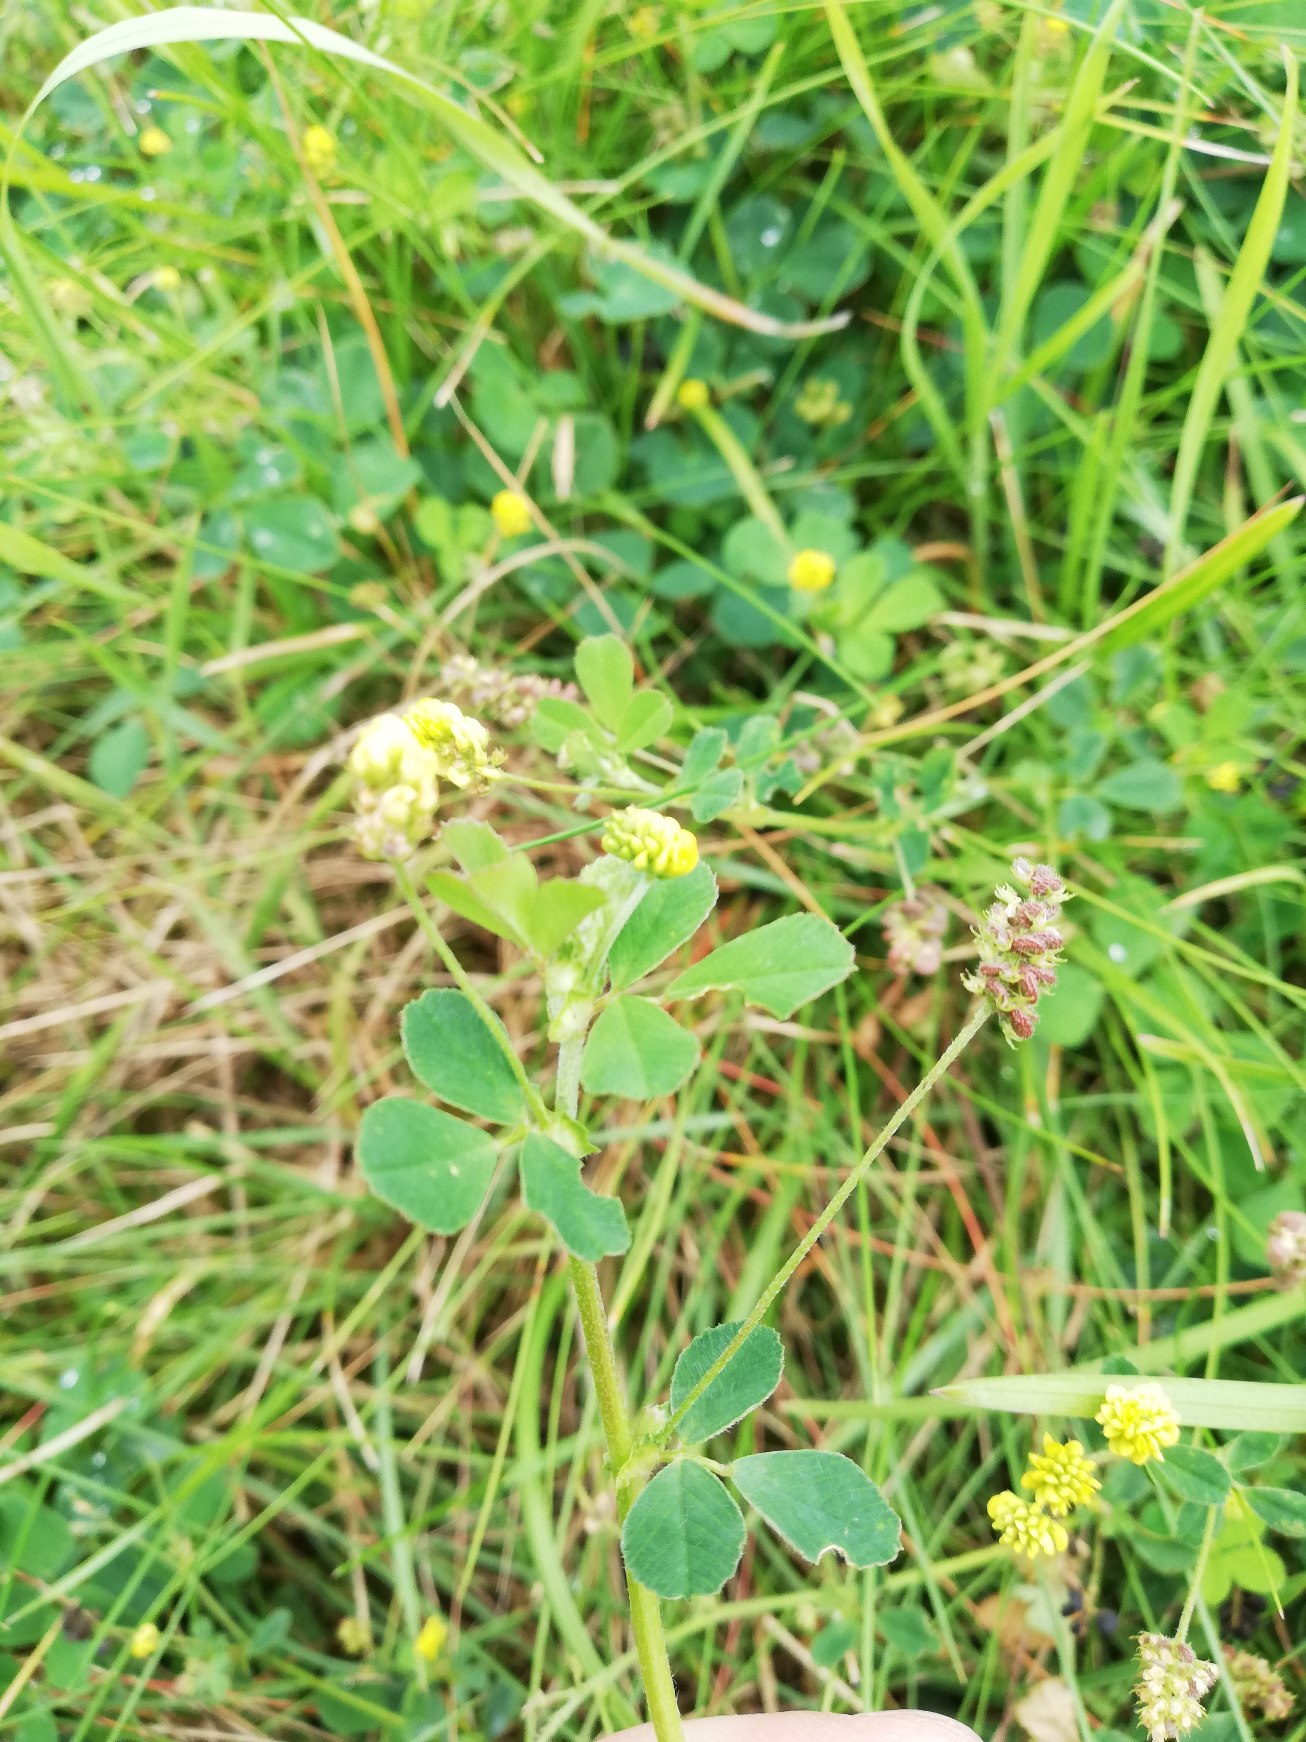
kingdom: Plantae
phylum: Tracheophyta
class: Magnoliopsida
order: Fabales
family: Fabaceae
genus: Medicago
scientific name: Medicago lupulina
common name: Humle-sneglebælg
